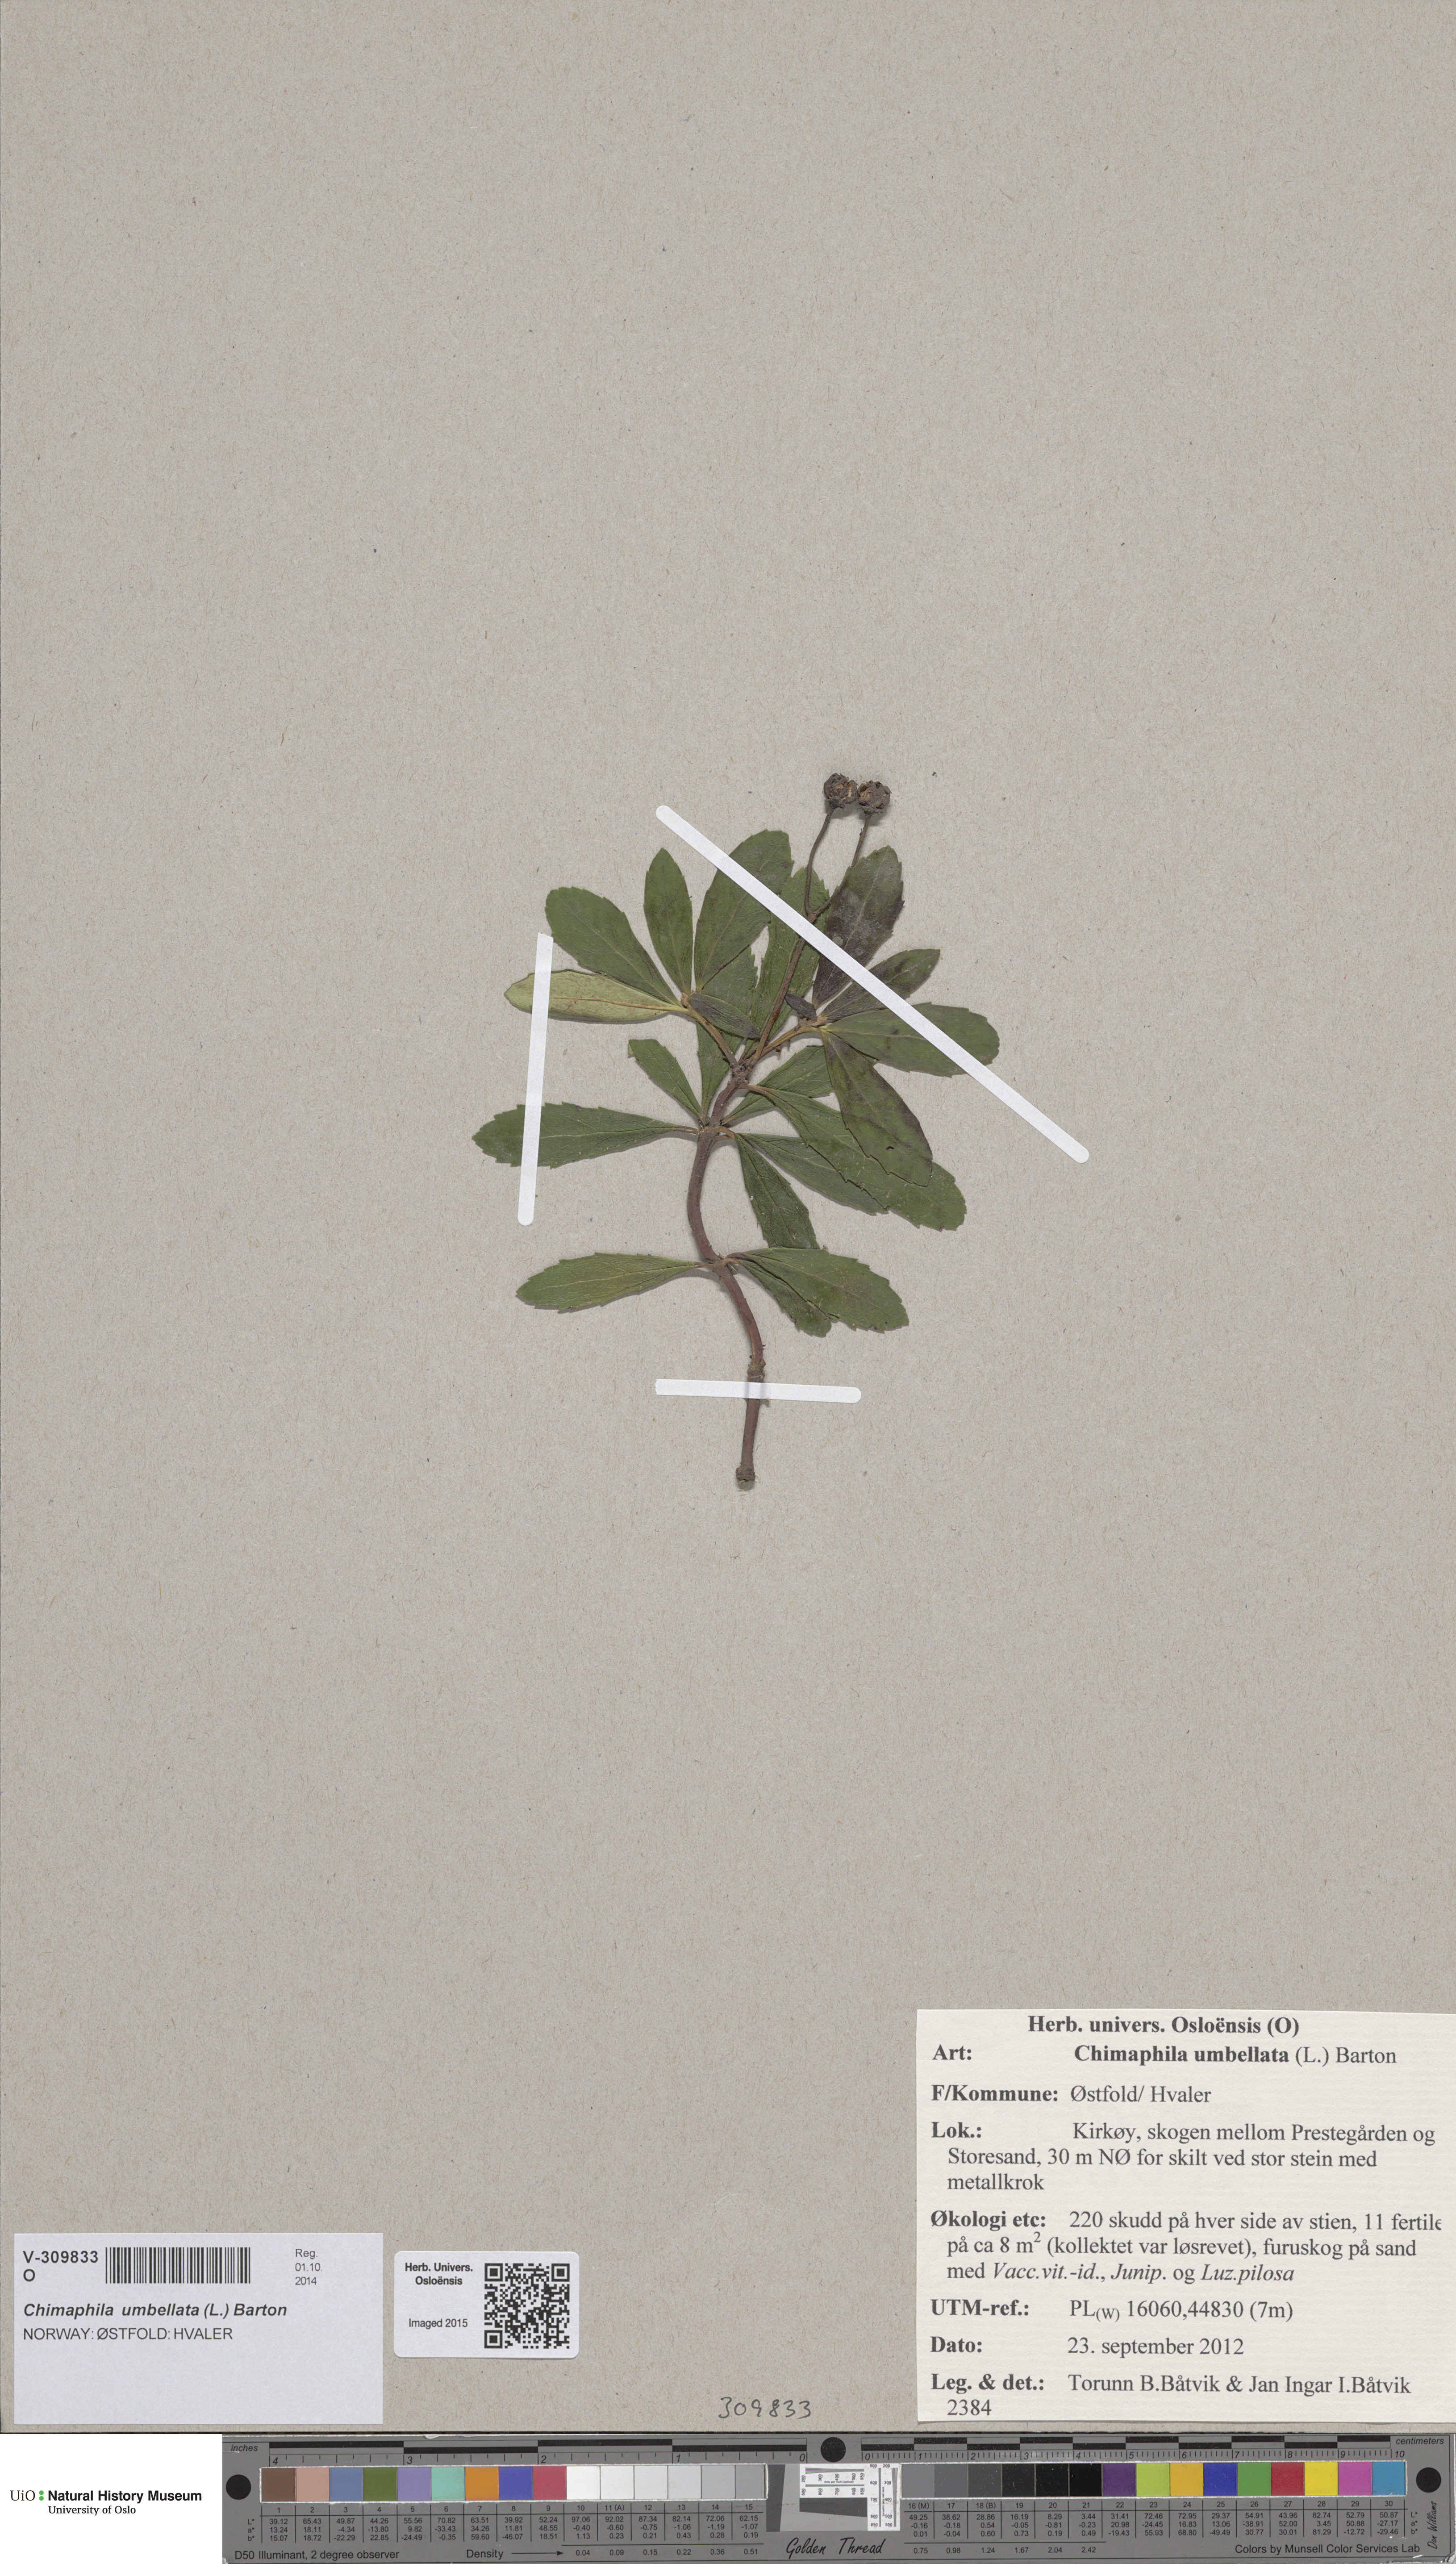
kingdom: Plantae
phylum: Tracheophyta
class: Magnoliopsida
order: Ericales
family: Ericaceae
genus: Chimaphila
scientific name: Chimaphila umbellata
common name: Pipsissewa
